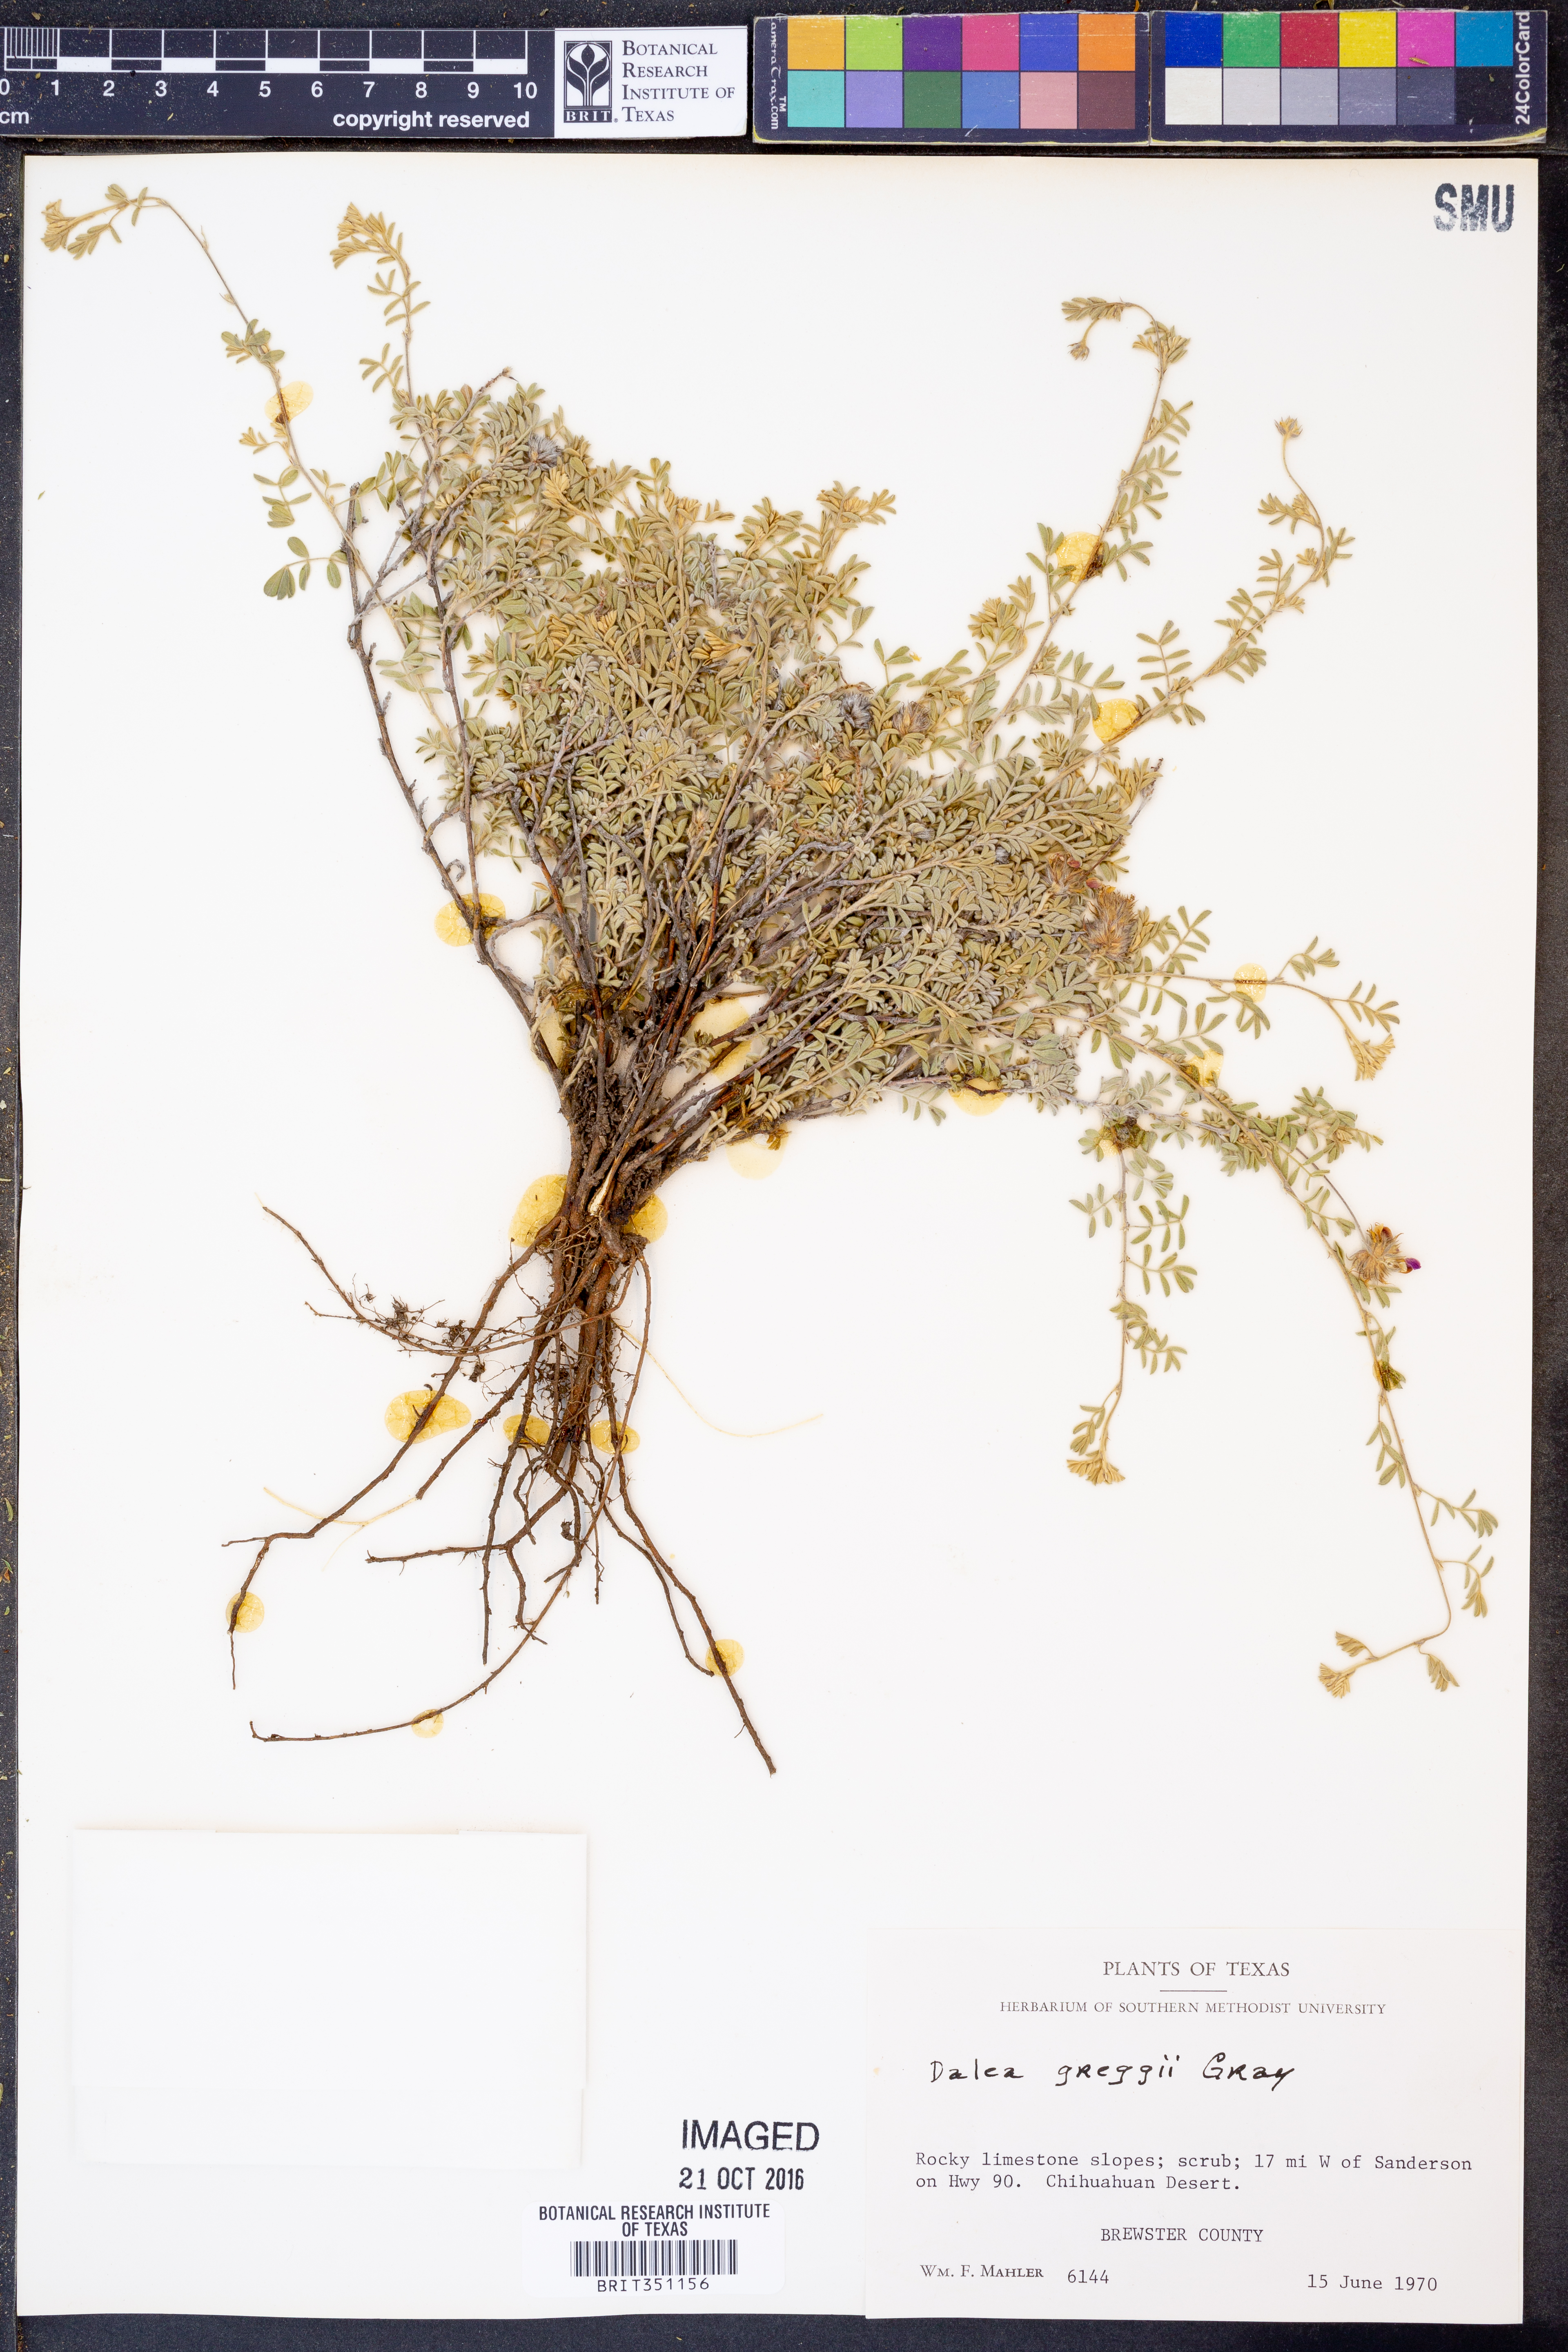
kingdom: Plantae
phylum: Tracheophyta
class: Magnoliopsida
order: Fabales
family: Fabaceae
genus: Dalea
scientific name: Dalea greggii
